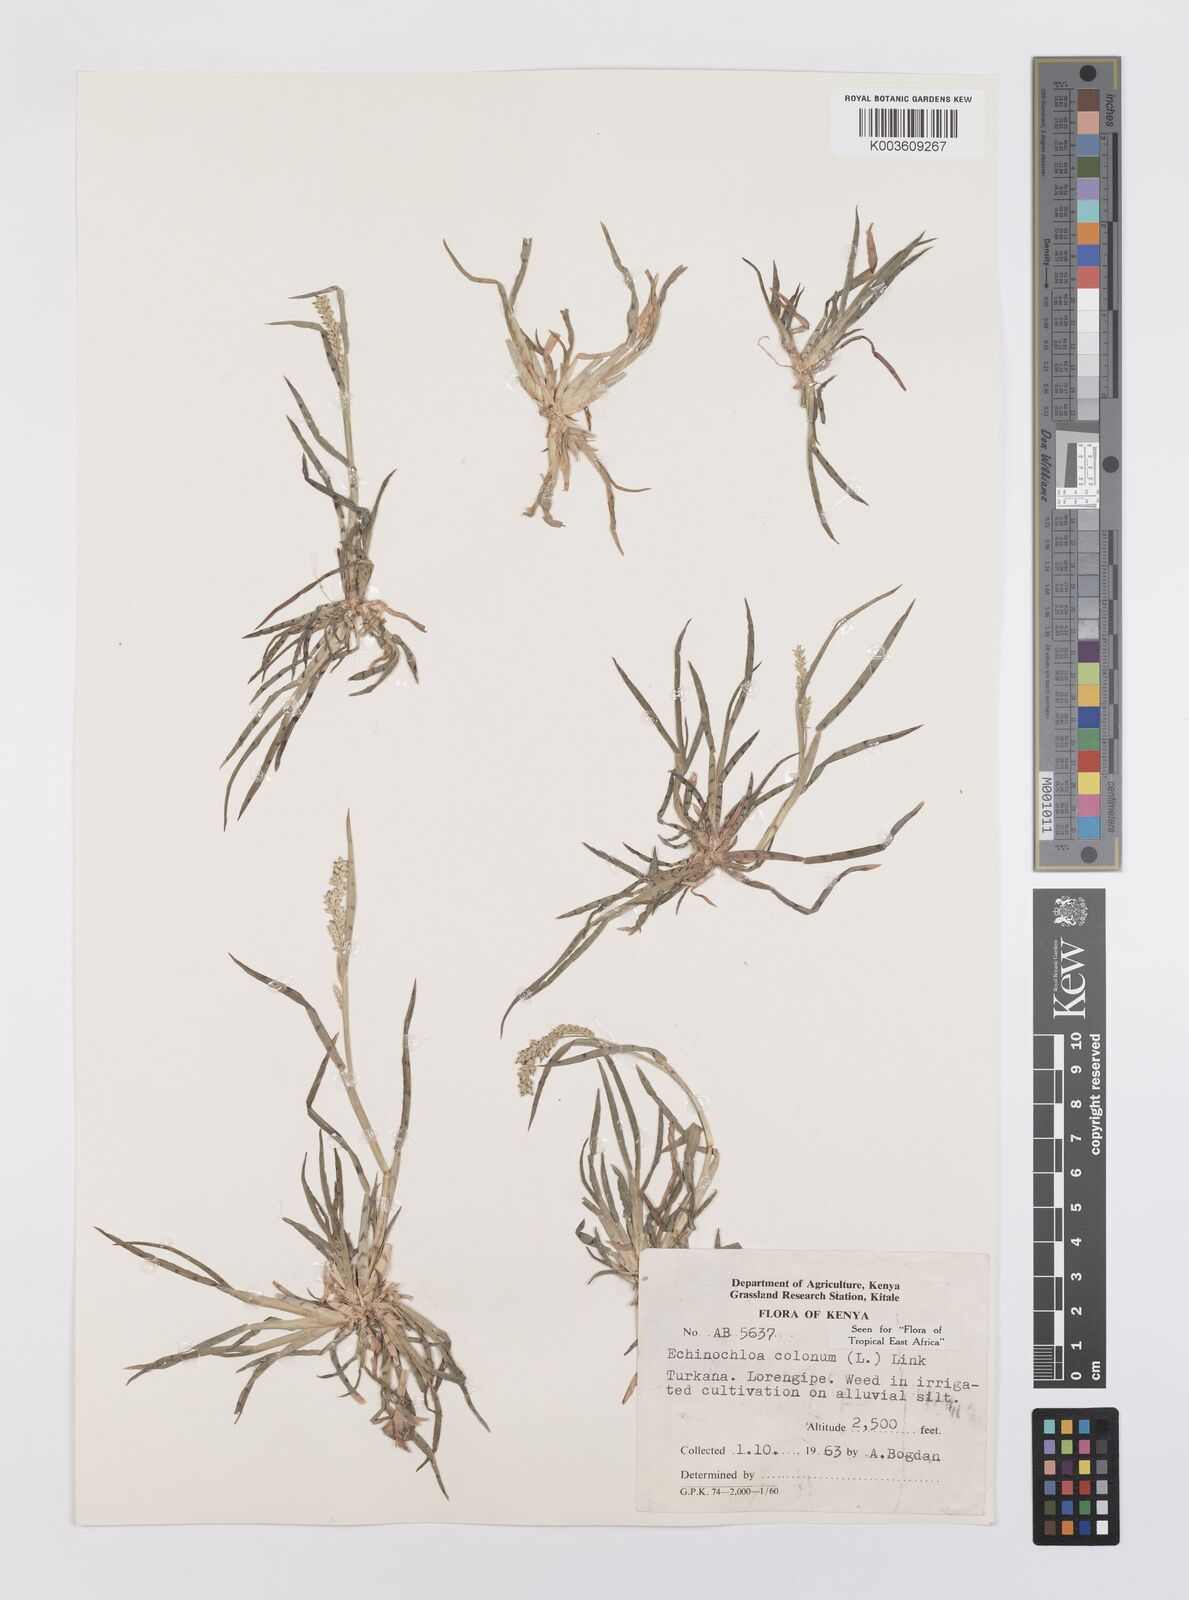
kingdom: Plantae
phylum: Tracheophyta
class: Liliopsida
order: Poales
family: Poaceae
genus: Echinochloa
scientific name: Echinochloa colonum
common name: Jungle rice
